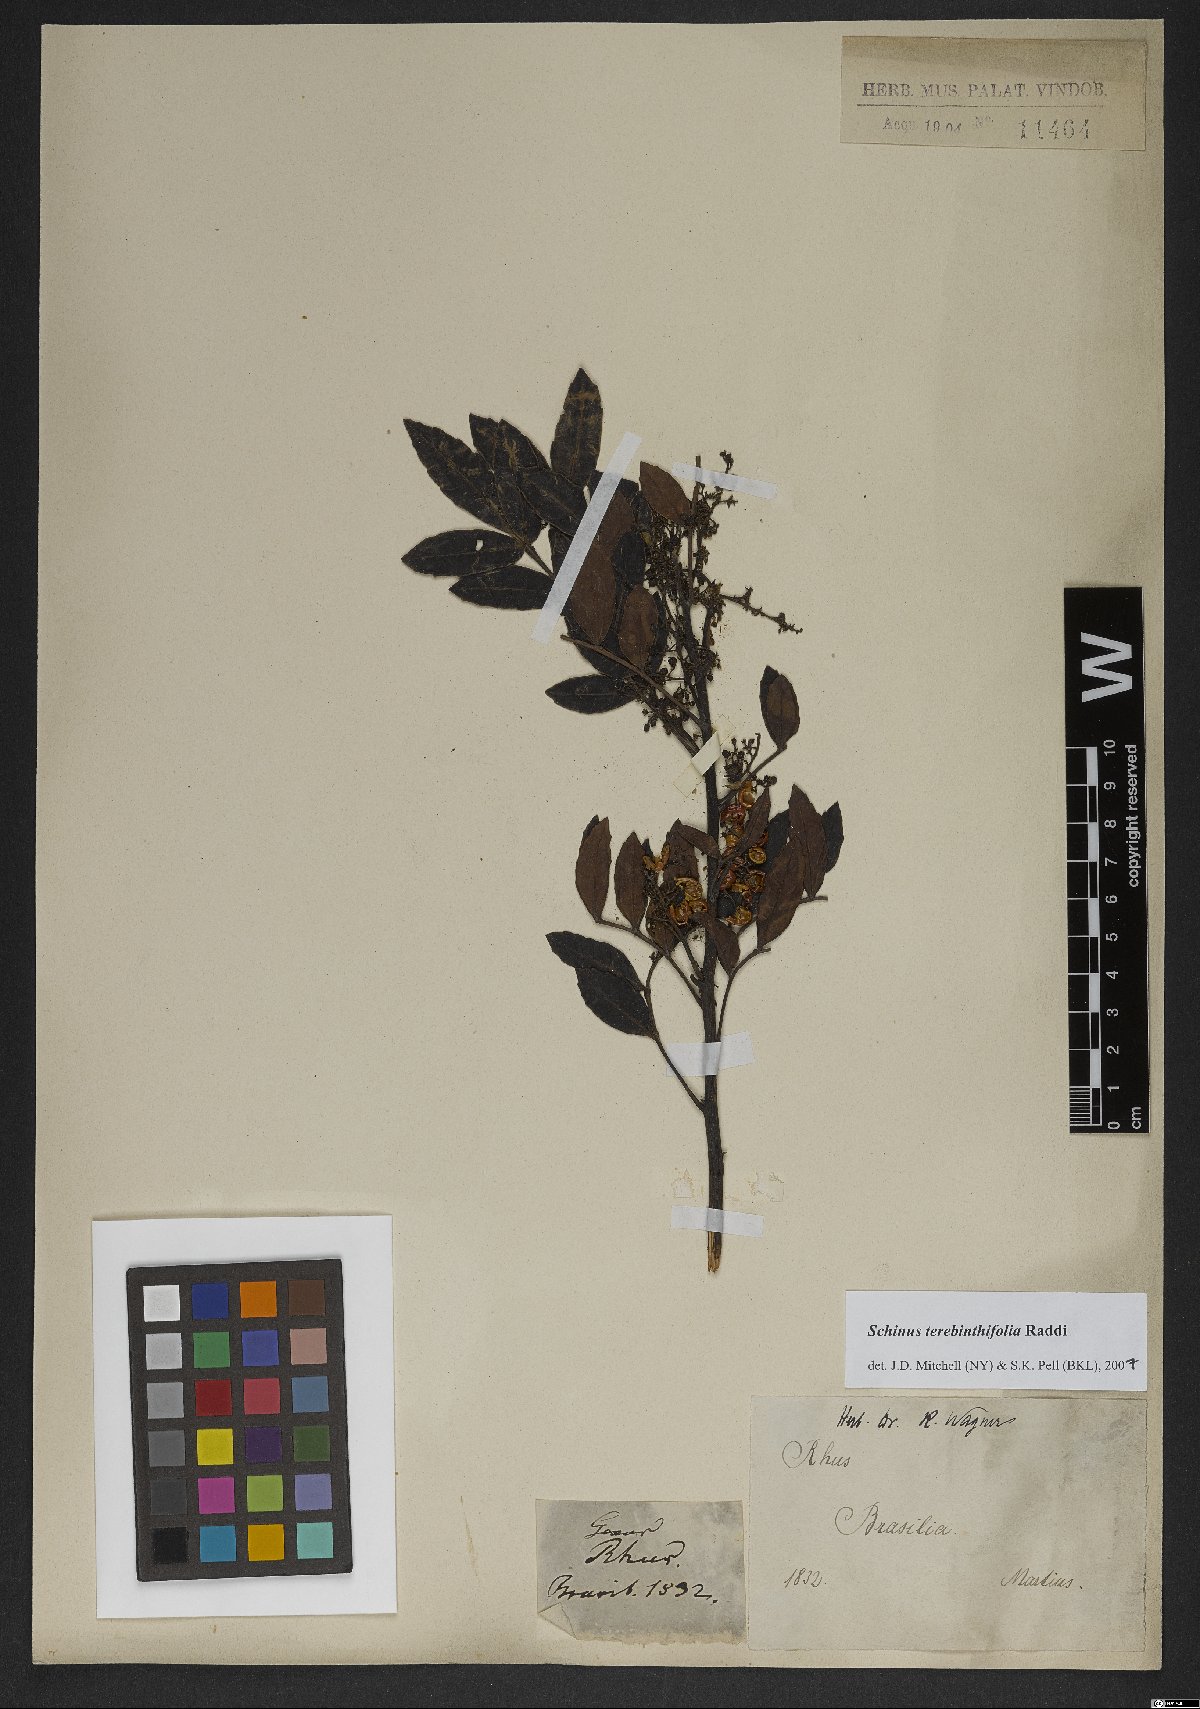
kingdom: Plantae
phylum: Tracheophyta
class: Magnoliopsida
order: Sapindales
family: Anacardiaceae
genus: Schinus
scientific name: Schinus terebinthifolia
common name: Brazilian peppertree
